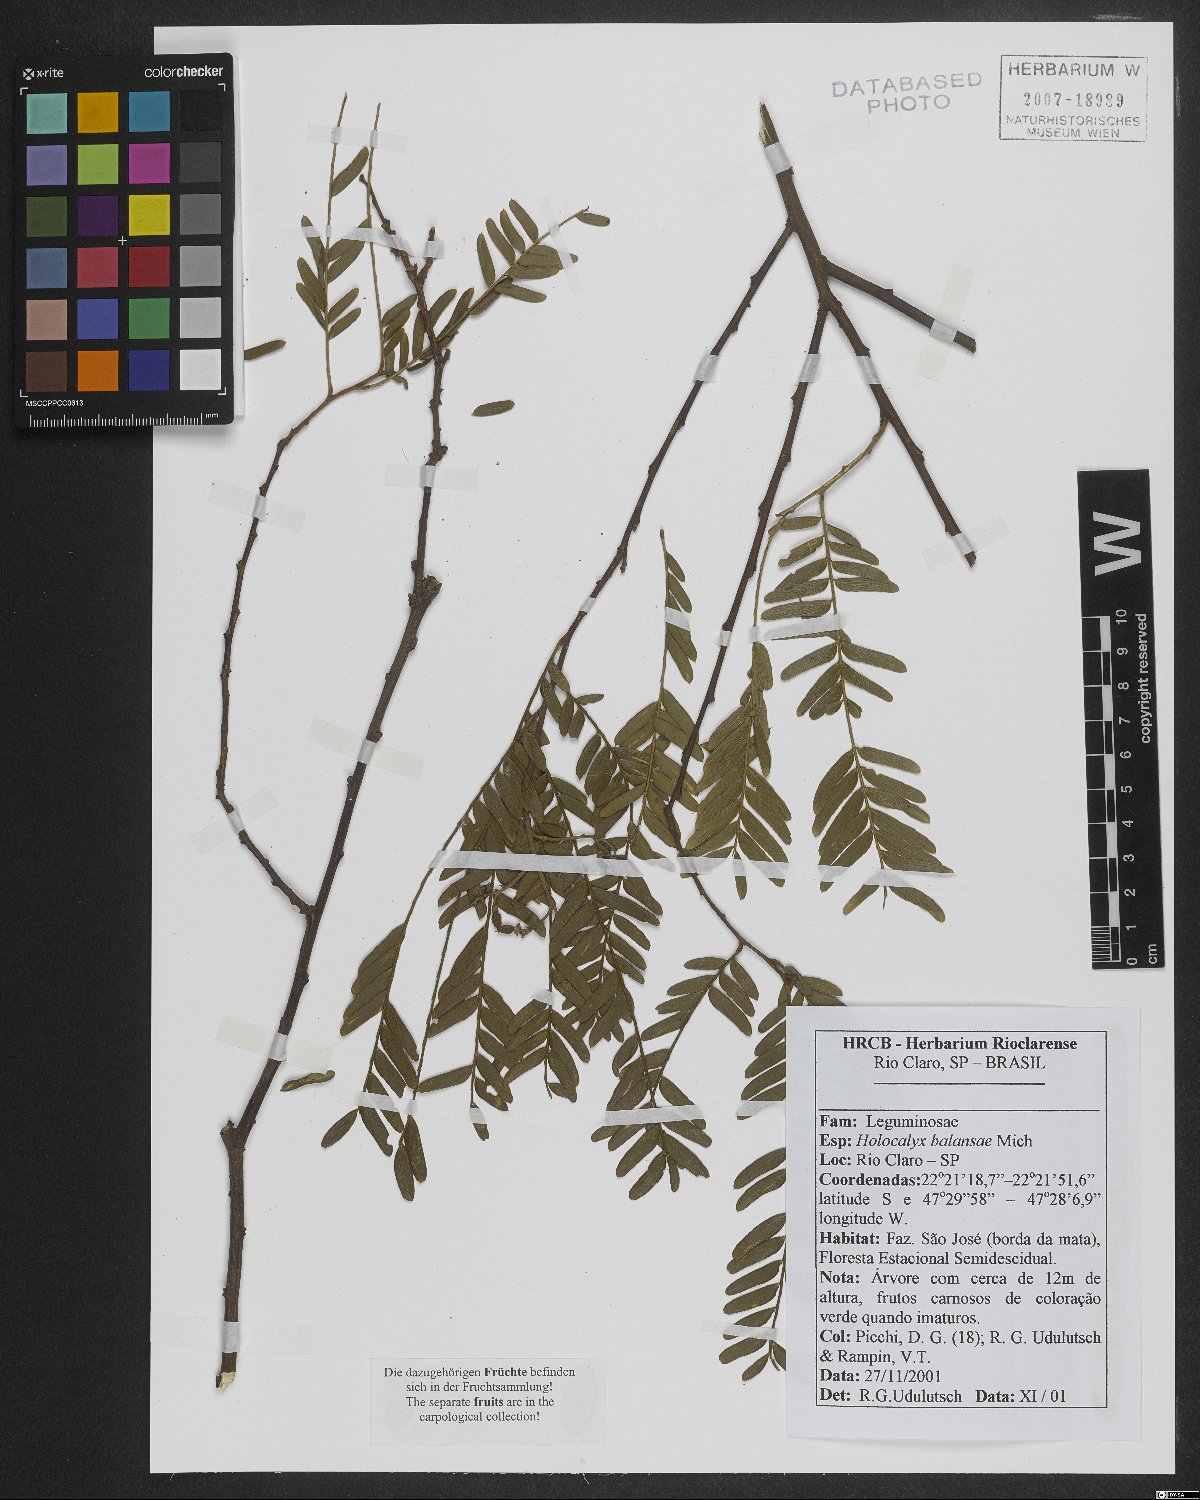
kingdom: Plantae
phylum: Tracheophyta
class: Magnoliopsida
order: Fabales
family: Fabaceae
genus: Holocalyx
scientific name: Holocalyx balansae
